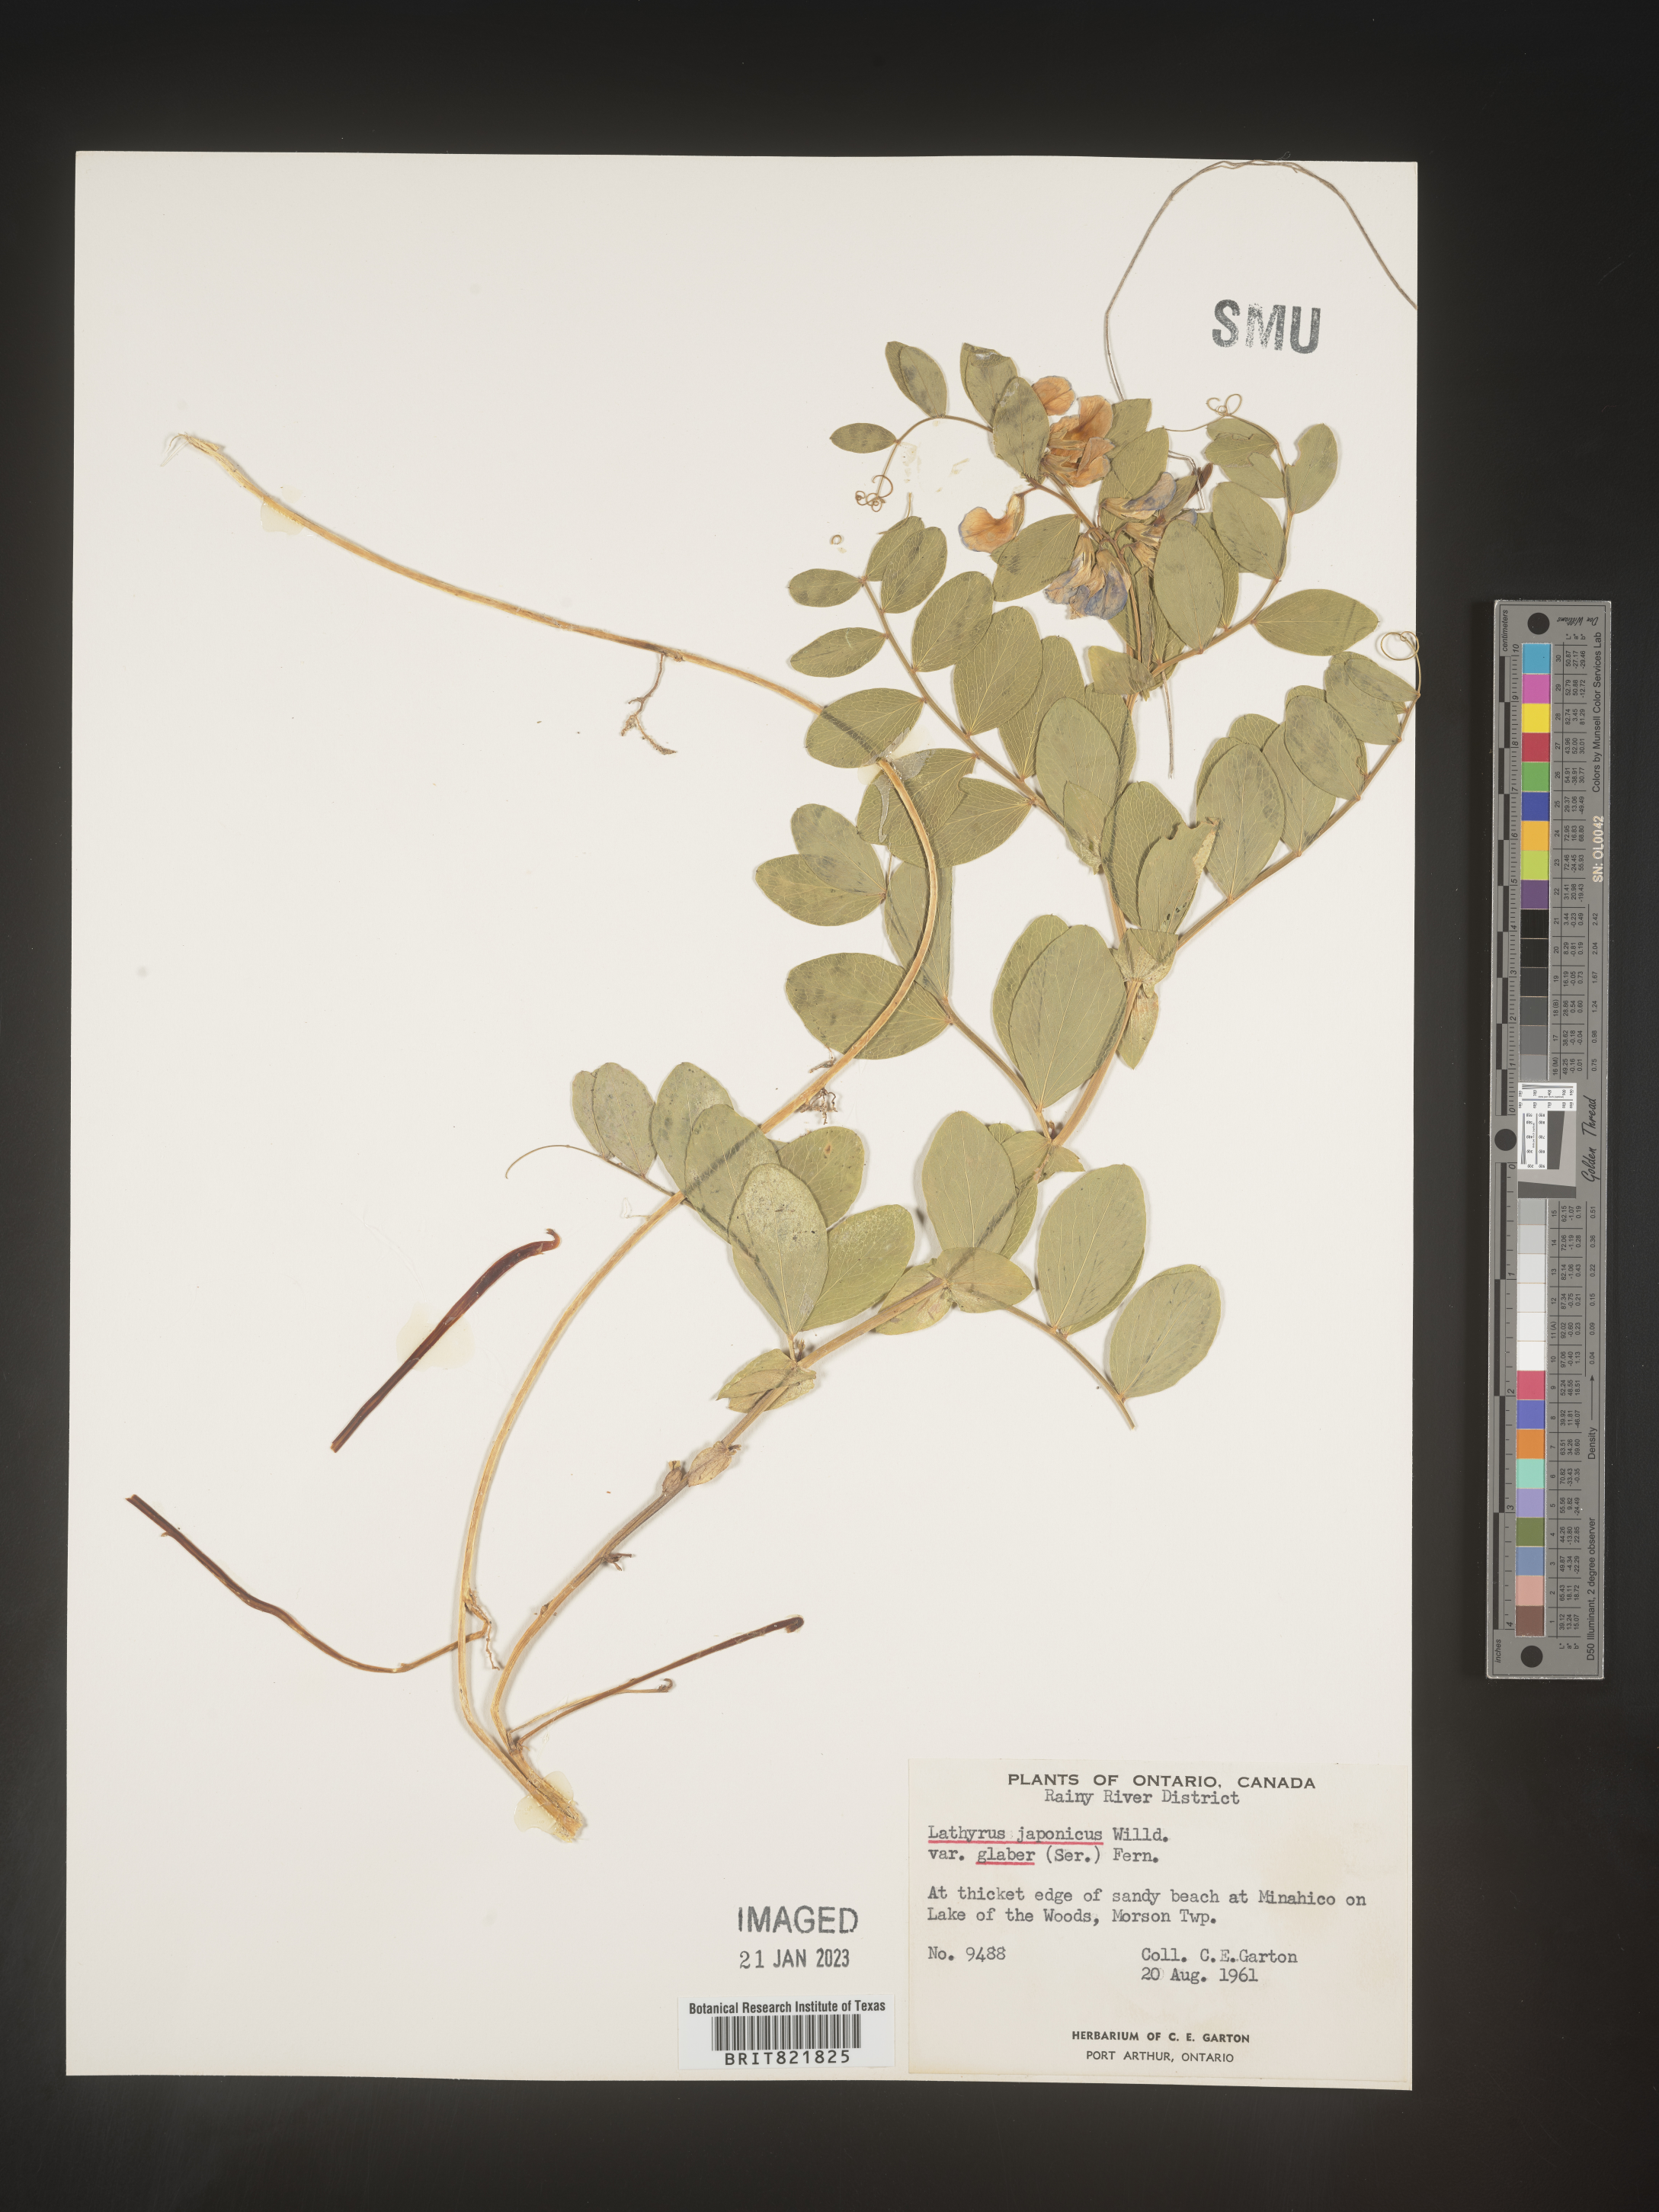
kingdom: Plantae
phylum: Tracheophyta
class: Magnoliopsida
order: Fabales
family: Fabaceae
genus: Lathyrus
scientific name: Lathyrus japonicus
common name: Sea pea
